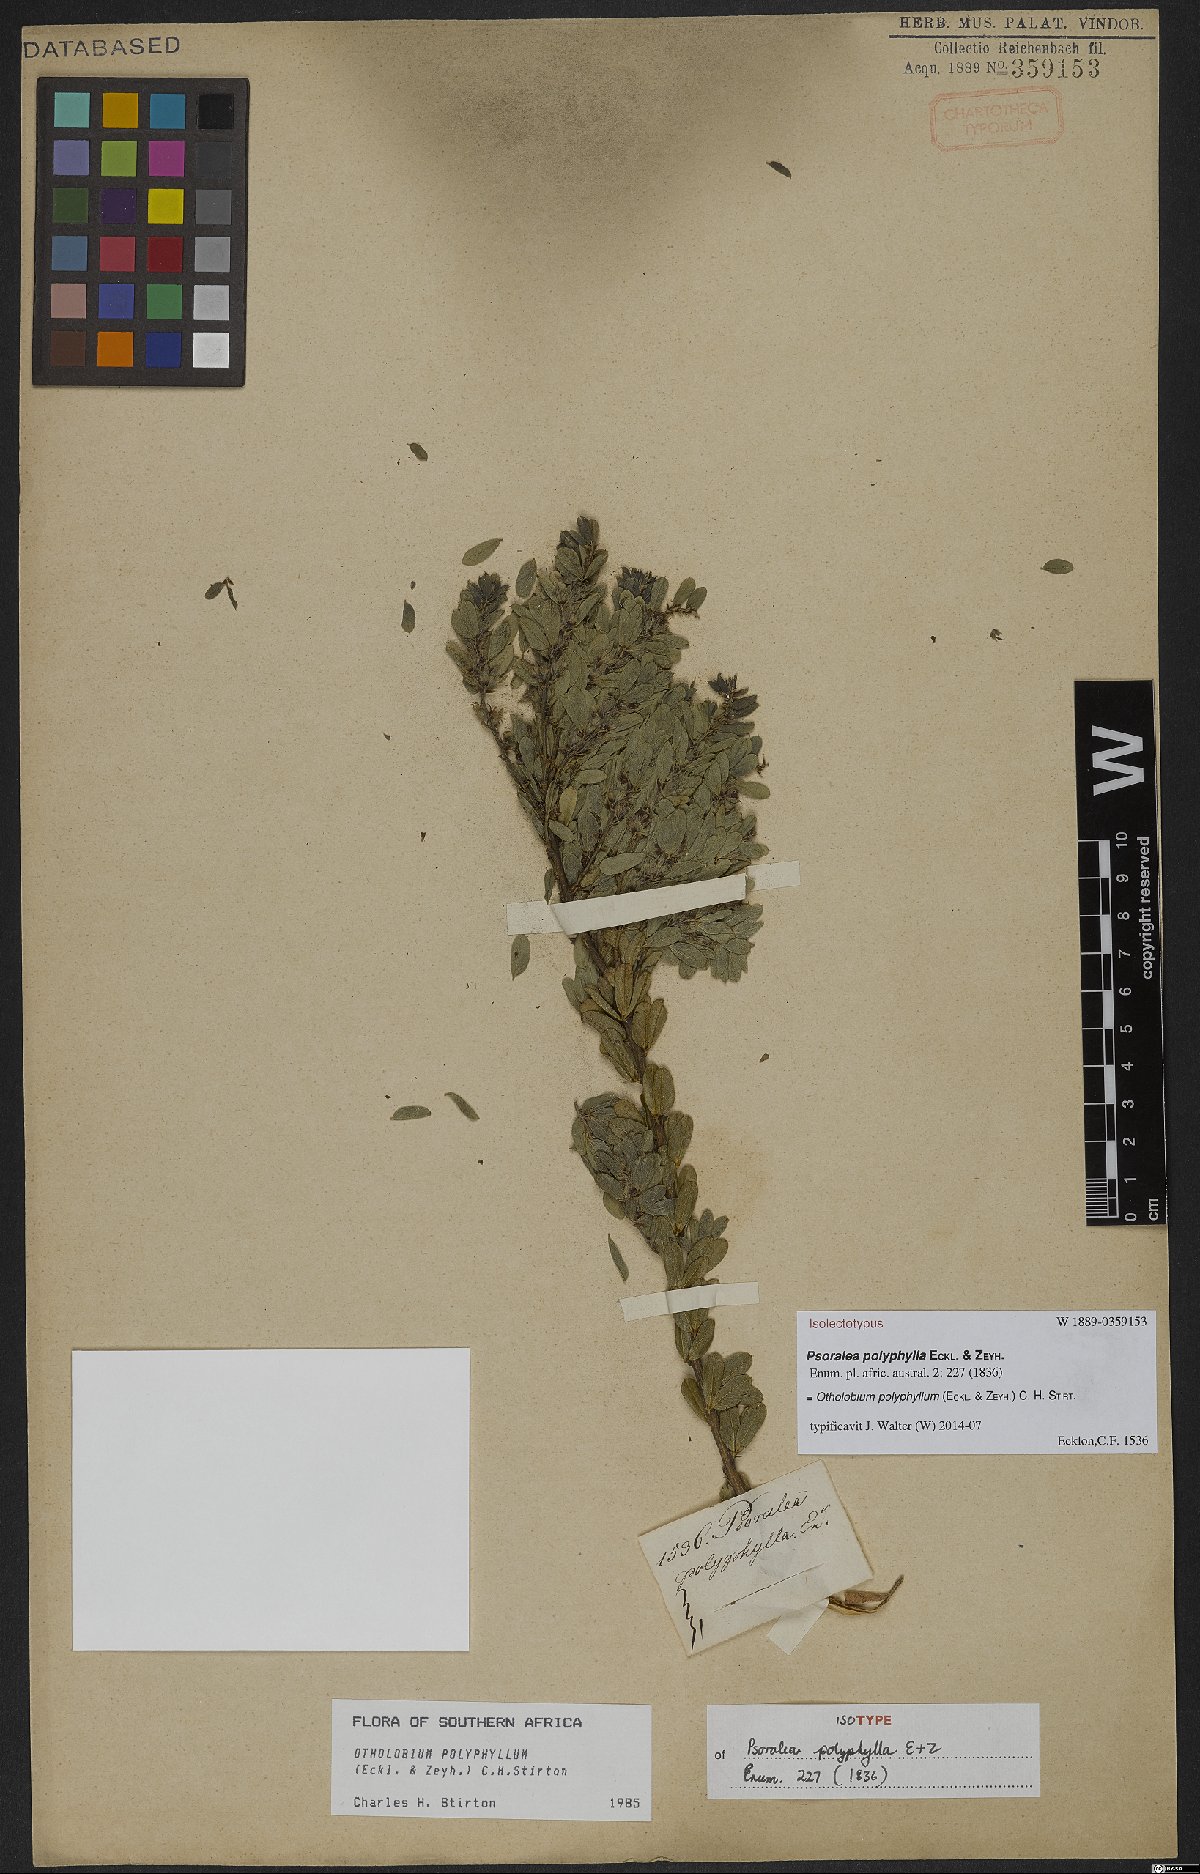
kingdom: Plantae
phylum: Tracheophyta
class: Magnoliopsida
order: Fabales
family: Fabaceae
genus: Psoralea
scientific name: Psoralea polyphylla
